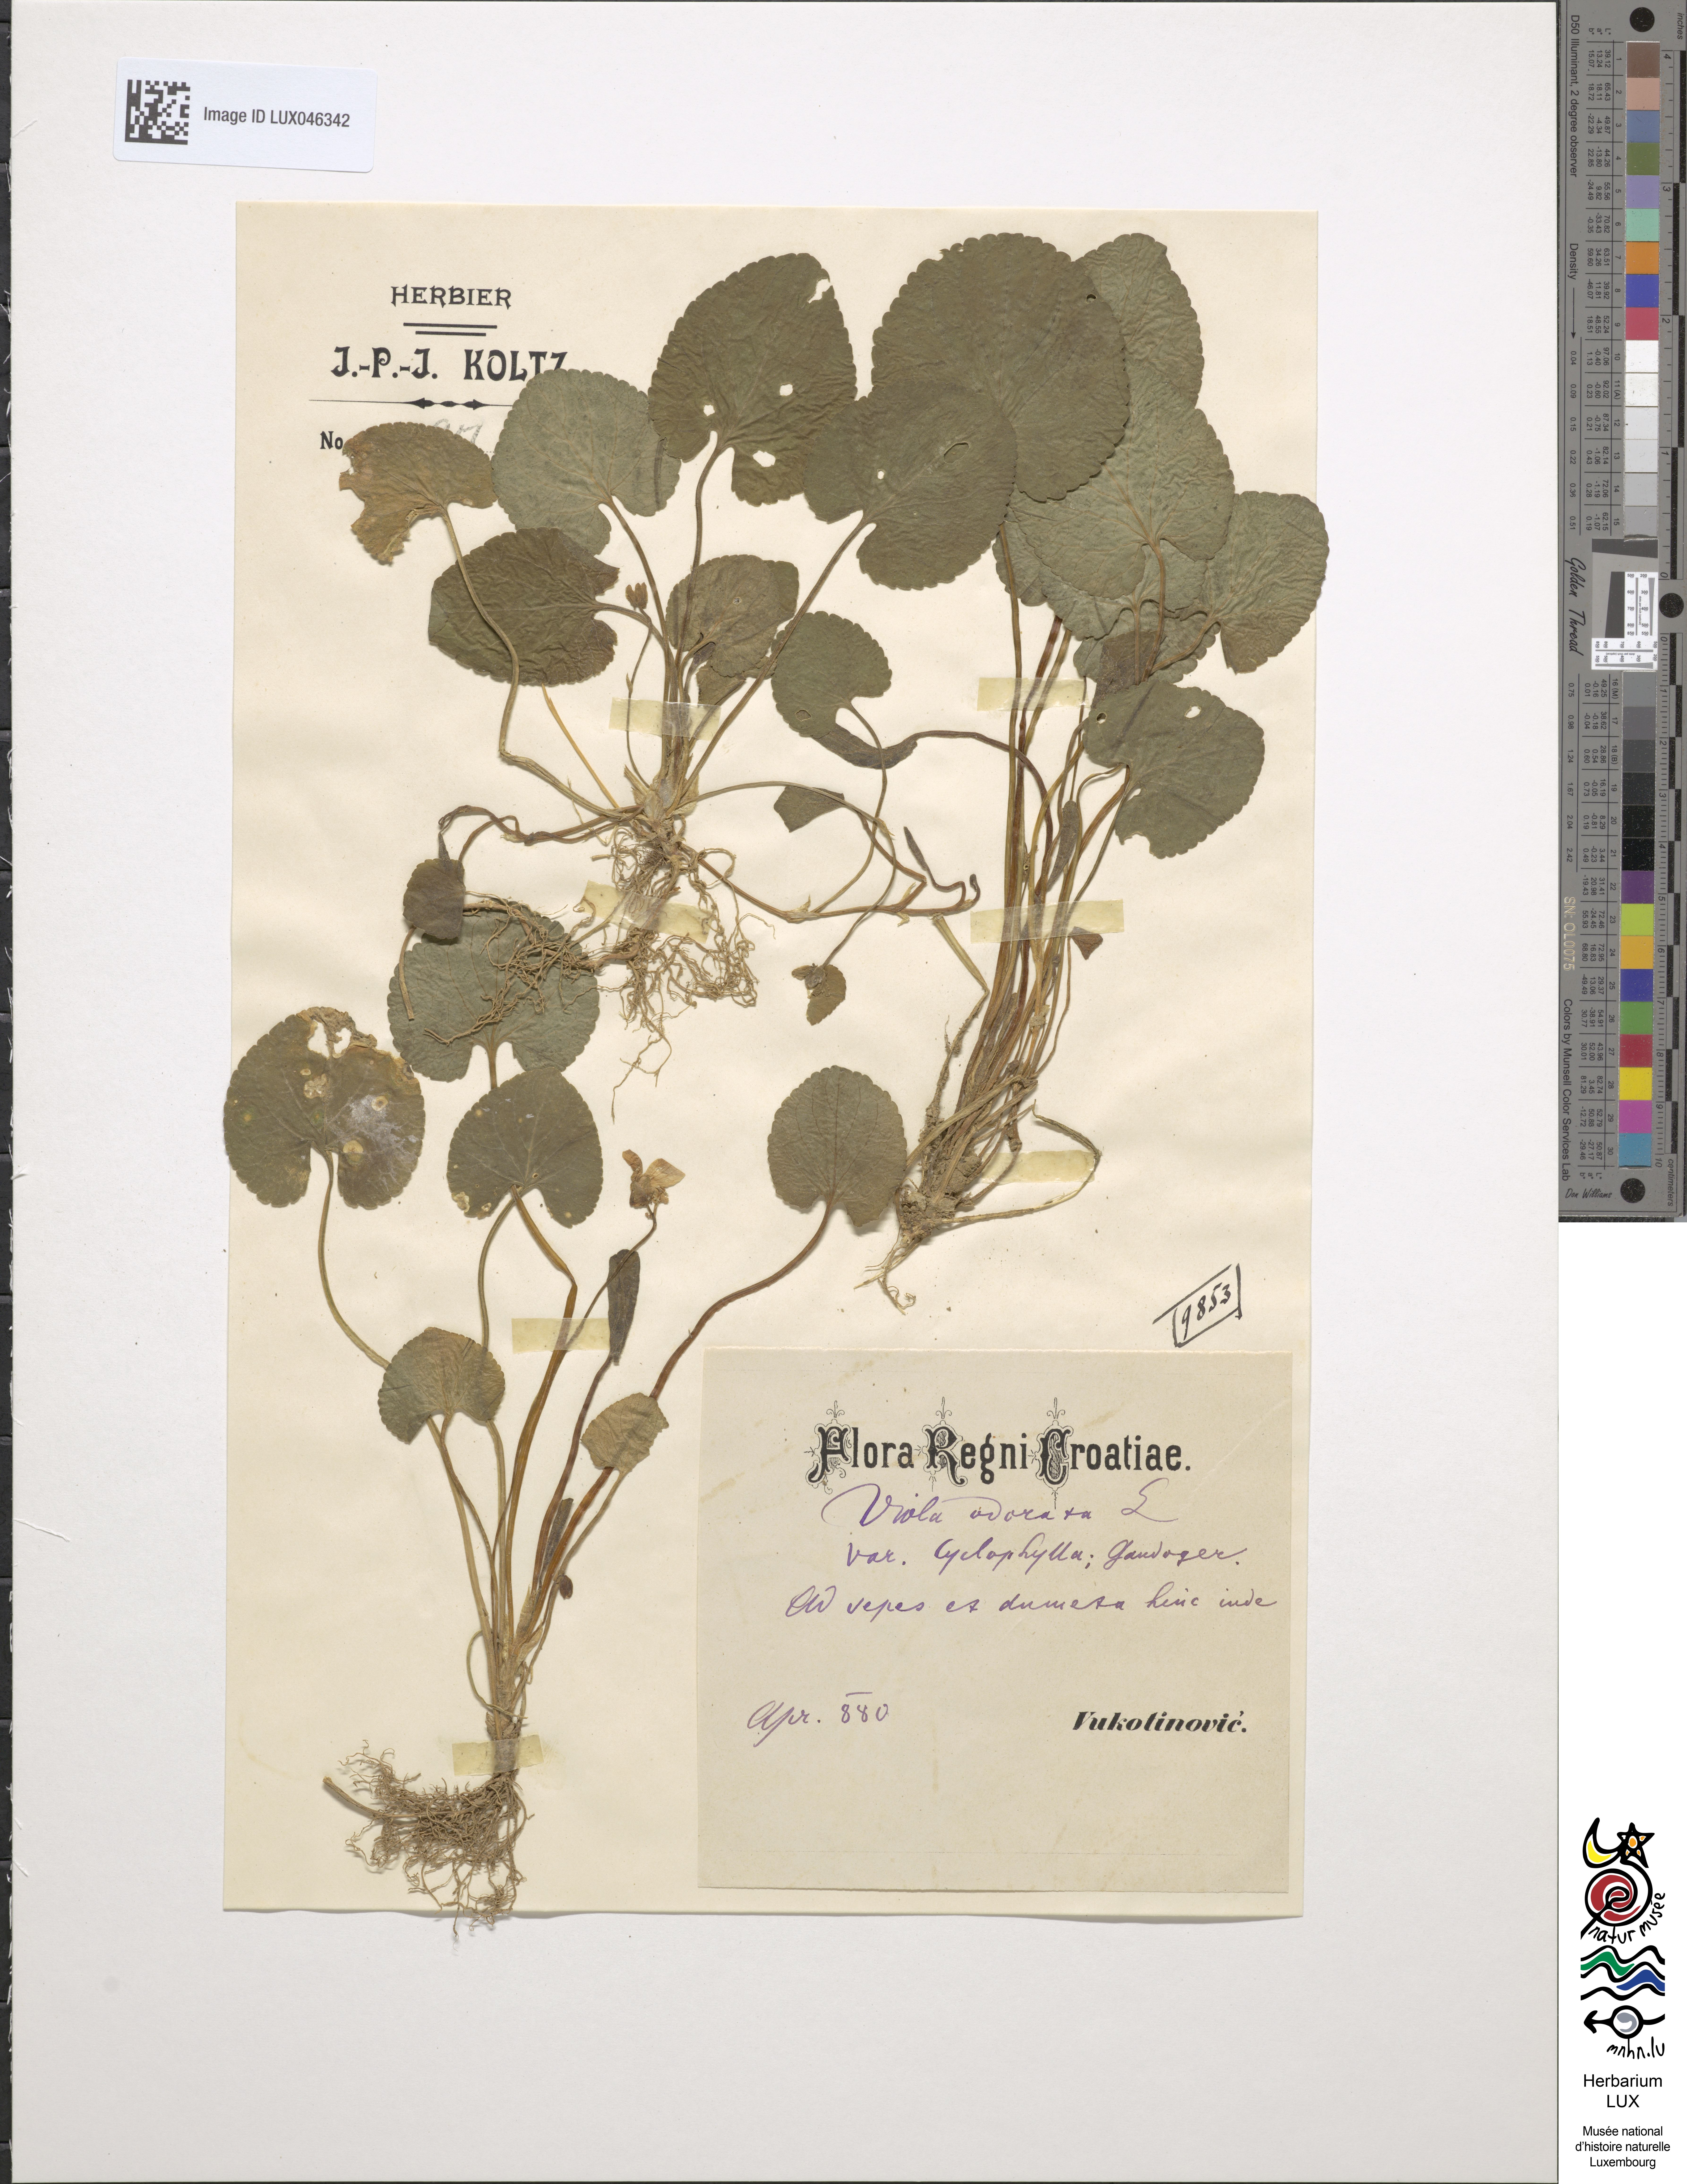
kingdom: Plantae
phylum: Tracheophyta
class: Magnoliopsida
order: Malpighiales
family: Violaceae
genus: Viola
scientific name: Viola odorata
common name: Sweet violet
